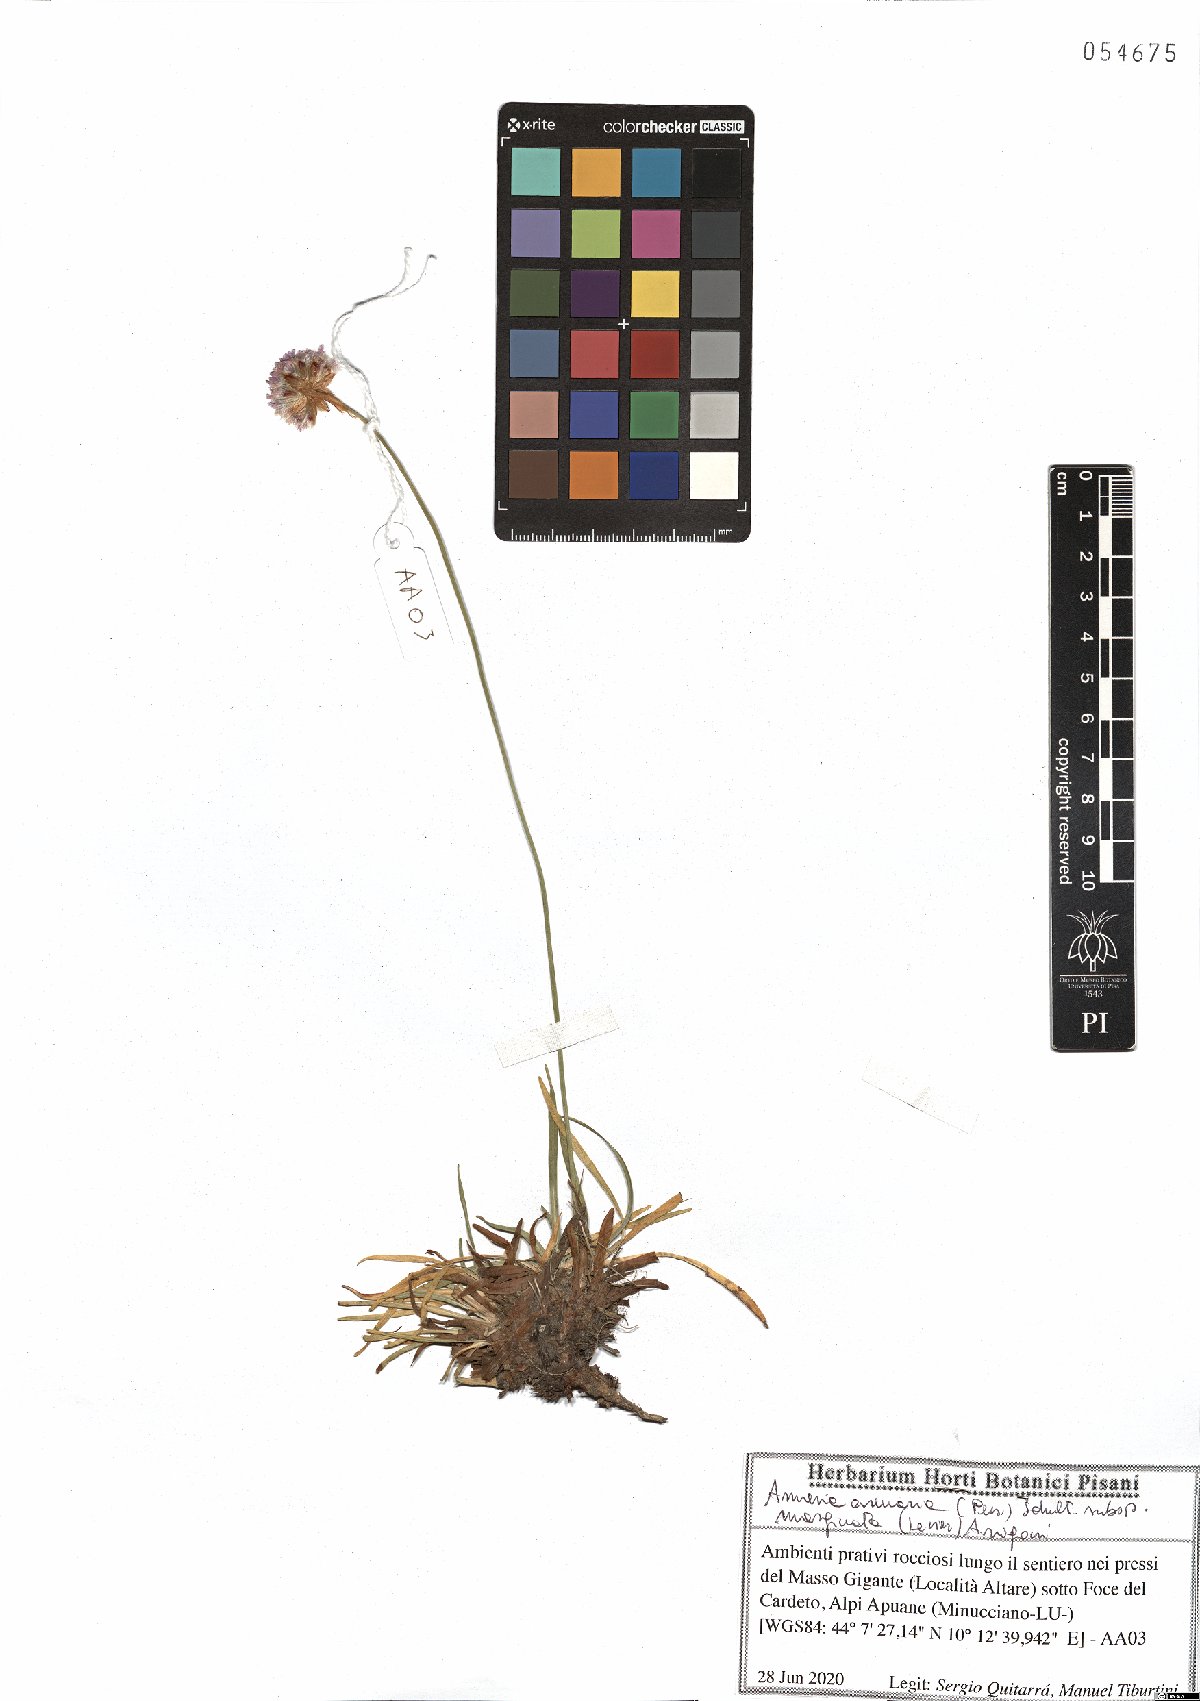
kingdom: Plantae
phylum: Tracheophyta
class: Magnoliopsida
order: Caryophyllales
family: Plumbaginaceae
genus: Armeria
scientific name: Armeria arenaria
